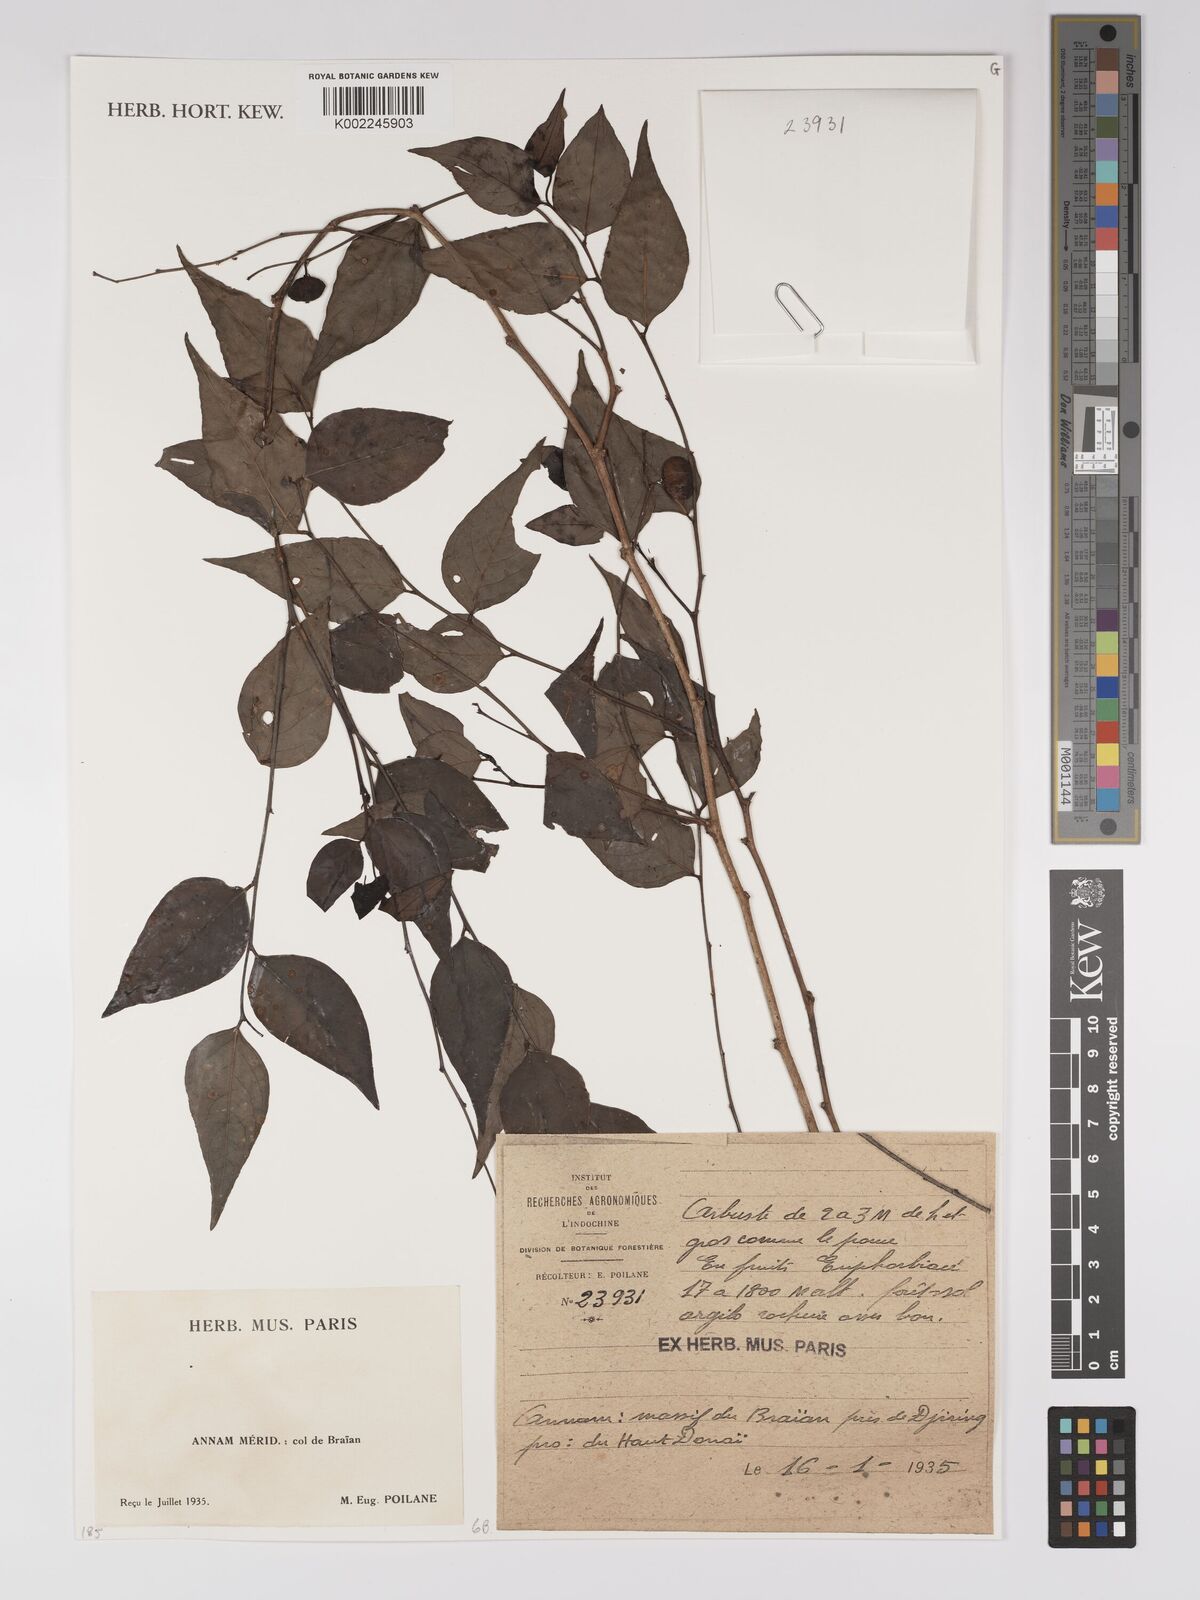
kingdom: Plantae
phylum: Tracheophyta
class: Magnoliopsida
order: Malpighiales
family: Euphorbiaceae
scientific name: Euphorbiaceae
